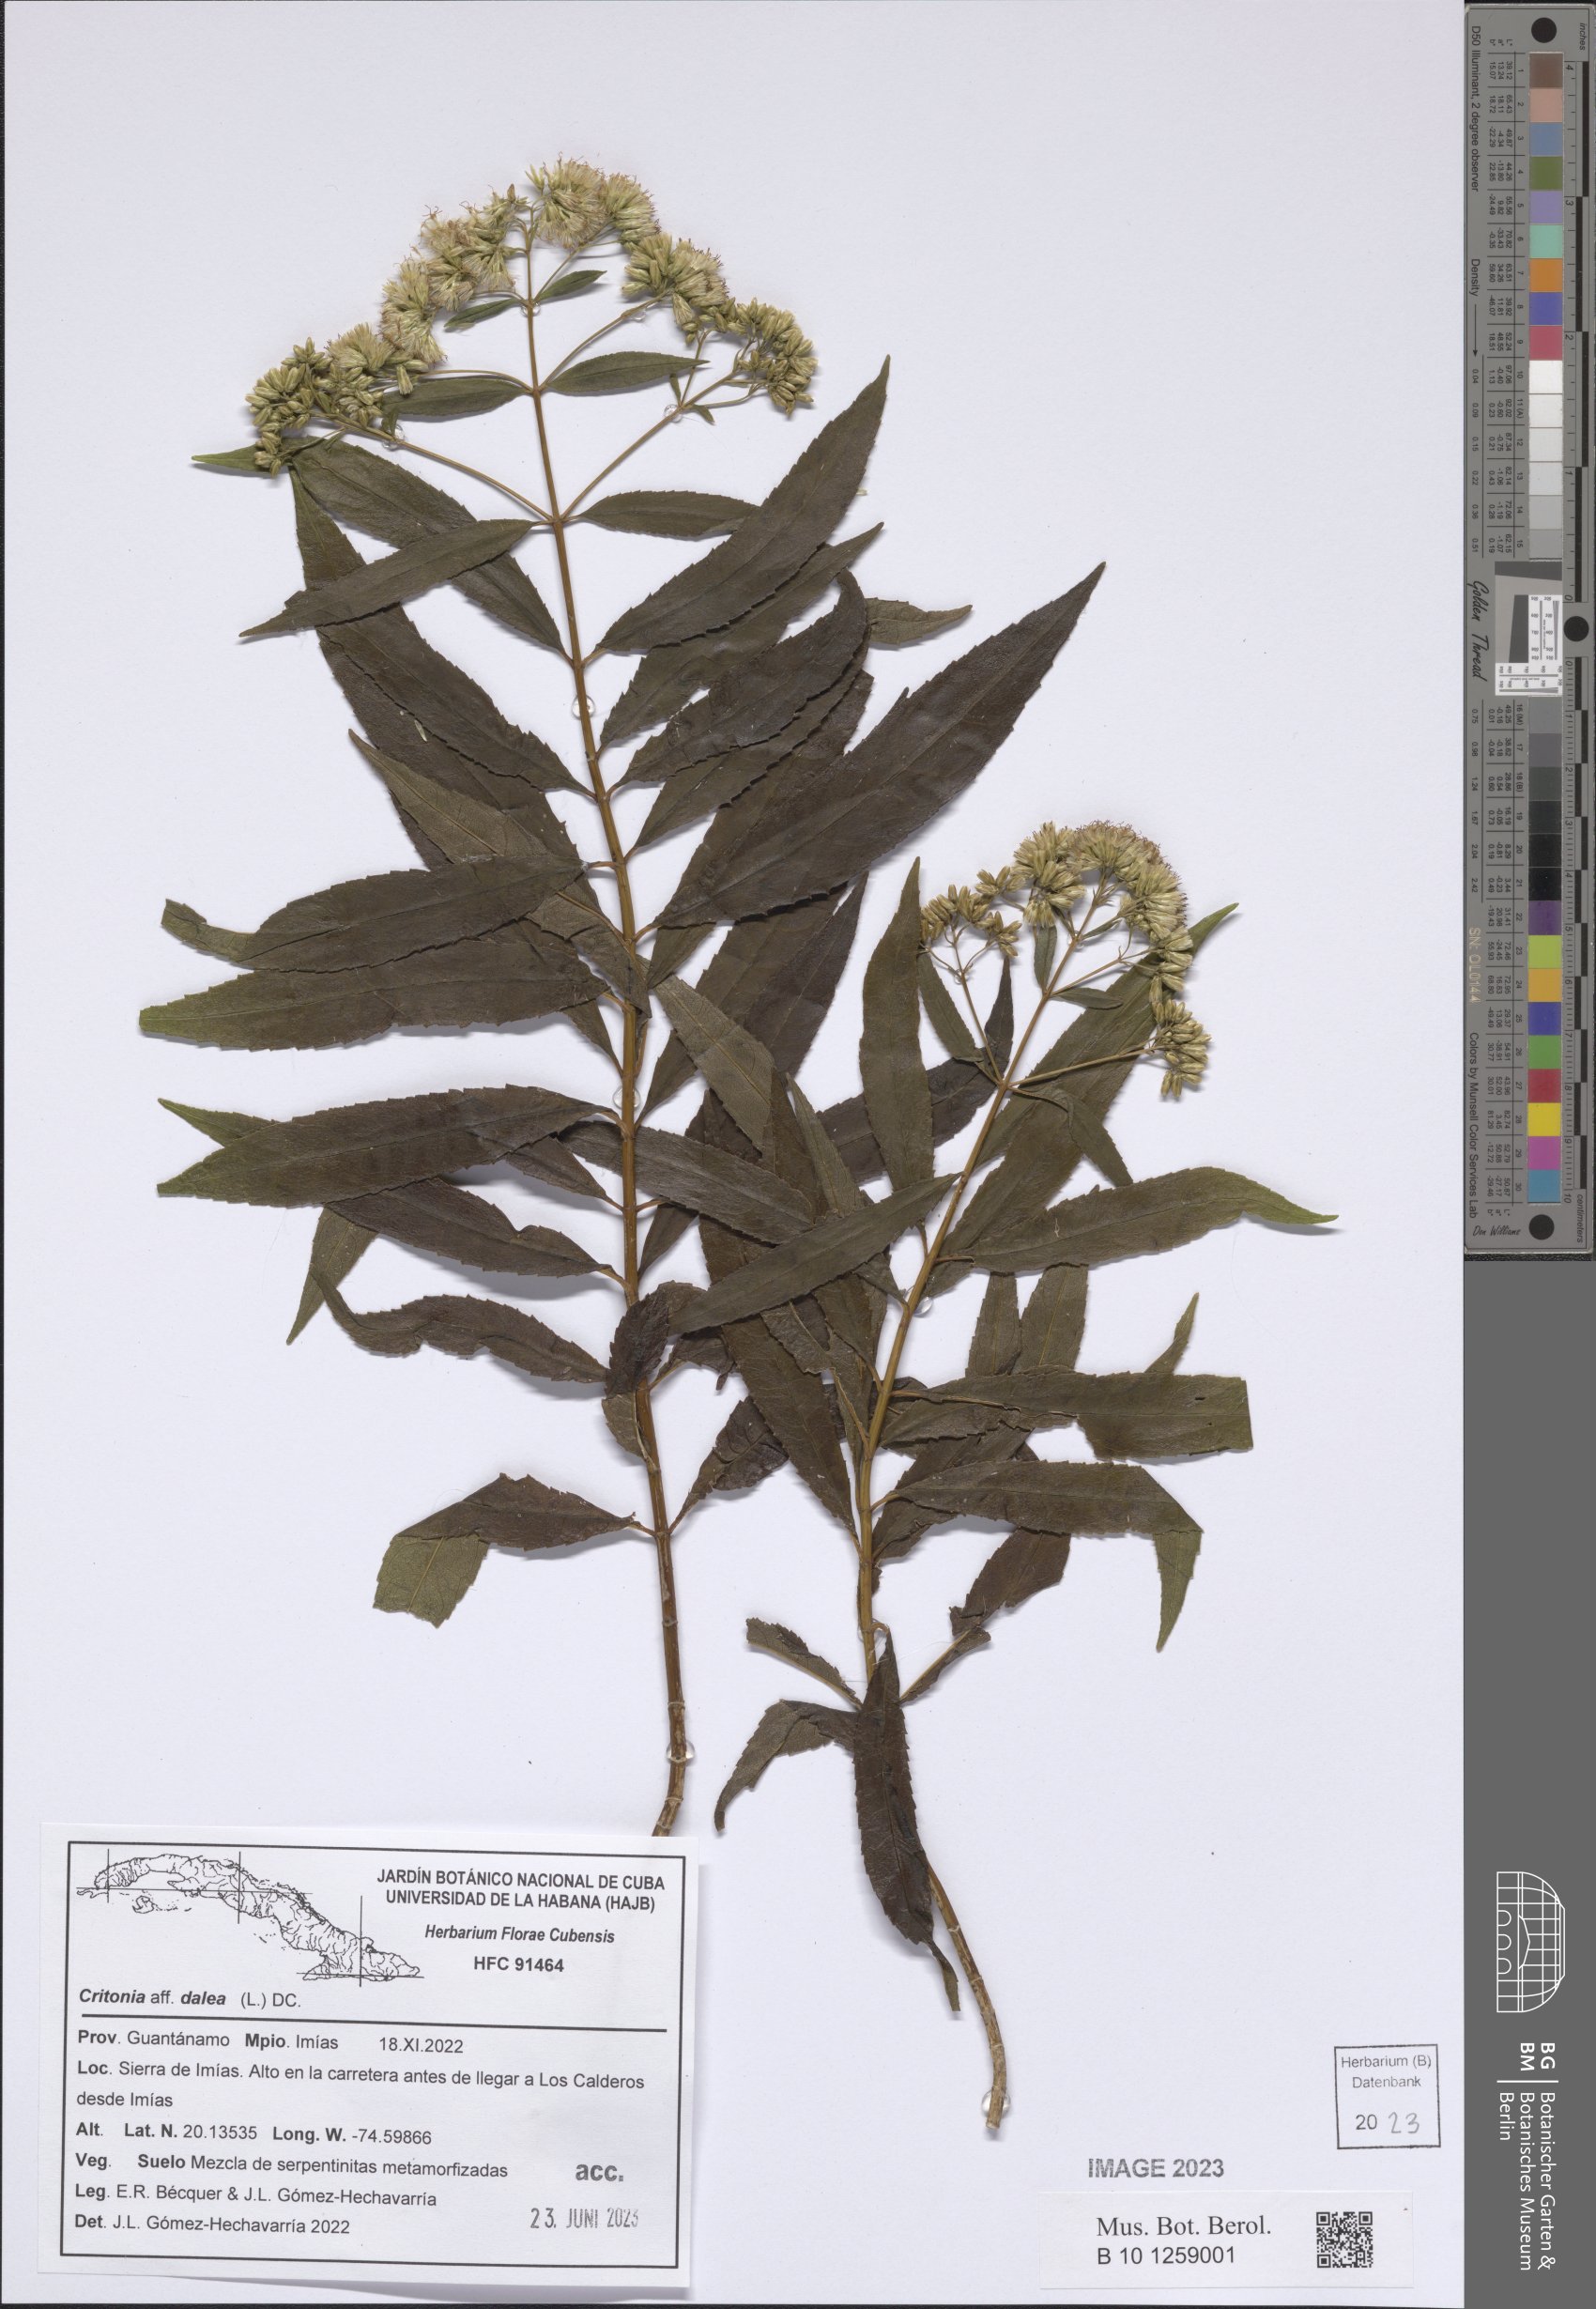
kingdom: Plantae
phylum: Tracheophyta
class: Magnoliopsida
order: Asterales
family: Asteraceae
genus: Critonia
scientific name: Critonia dalea
